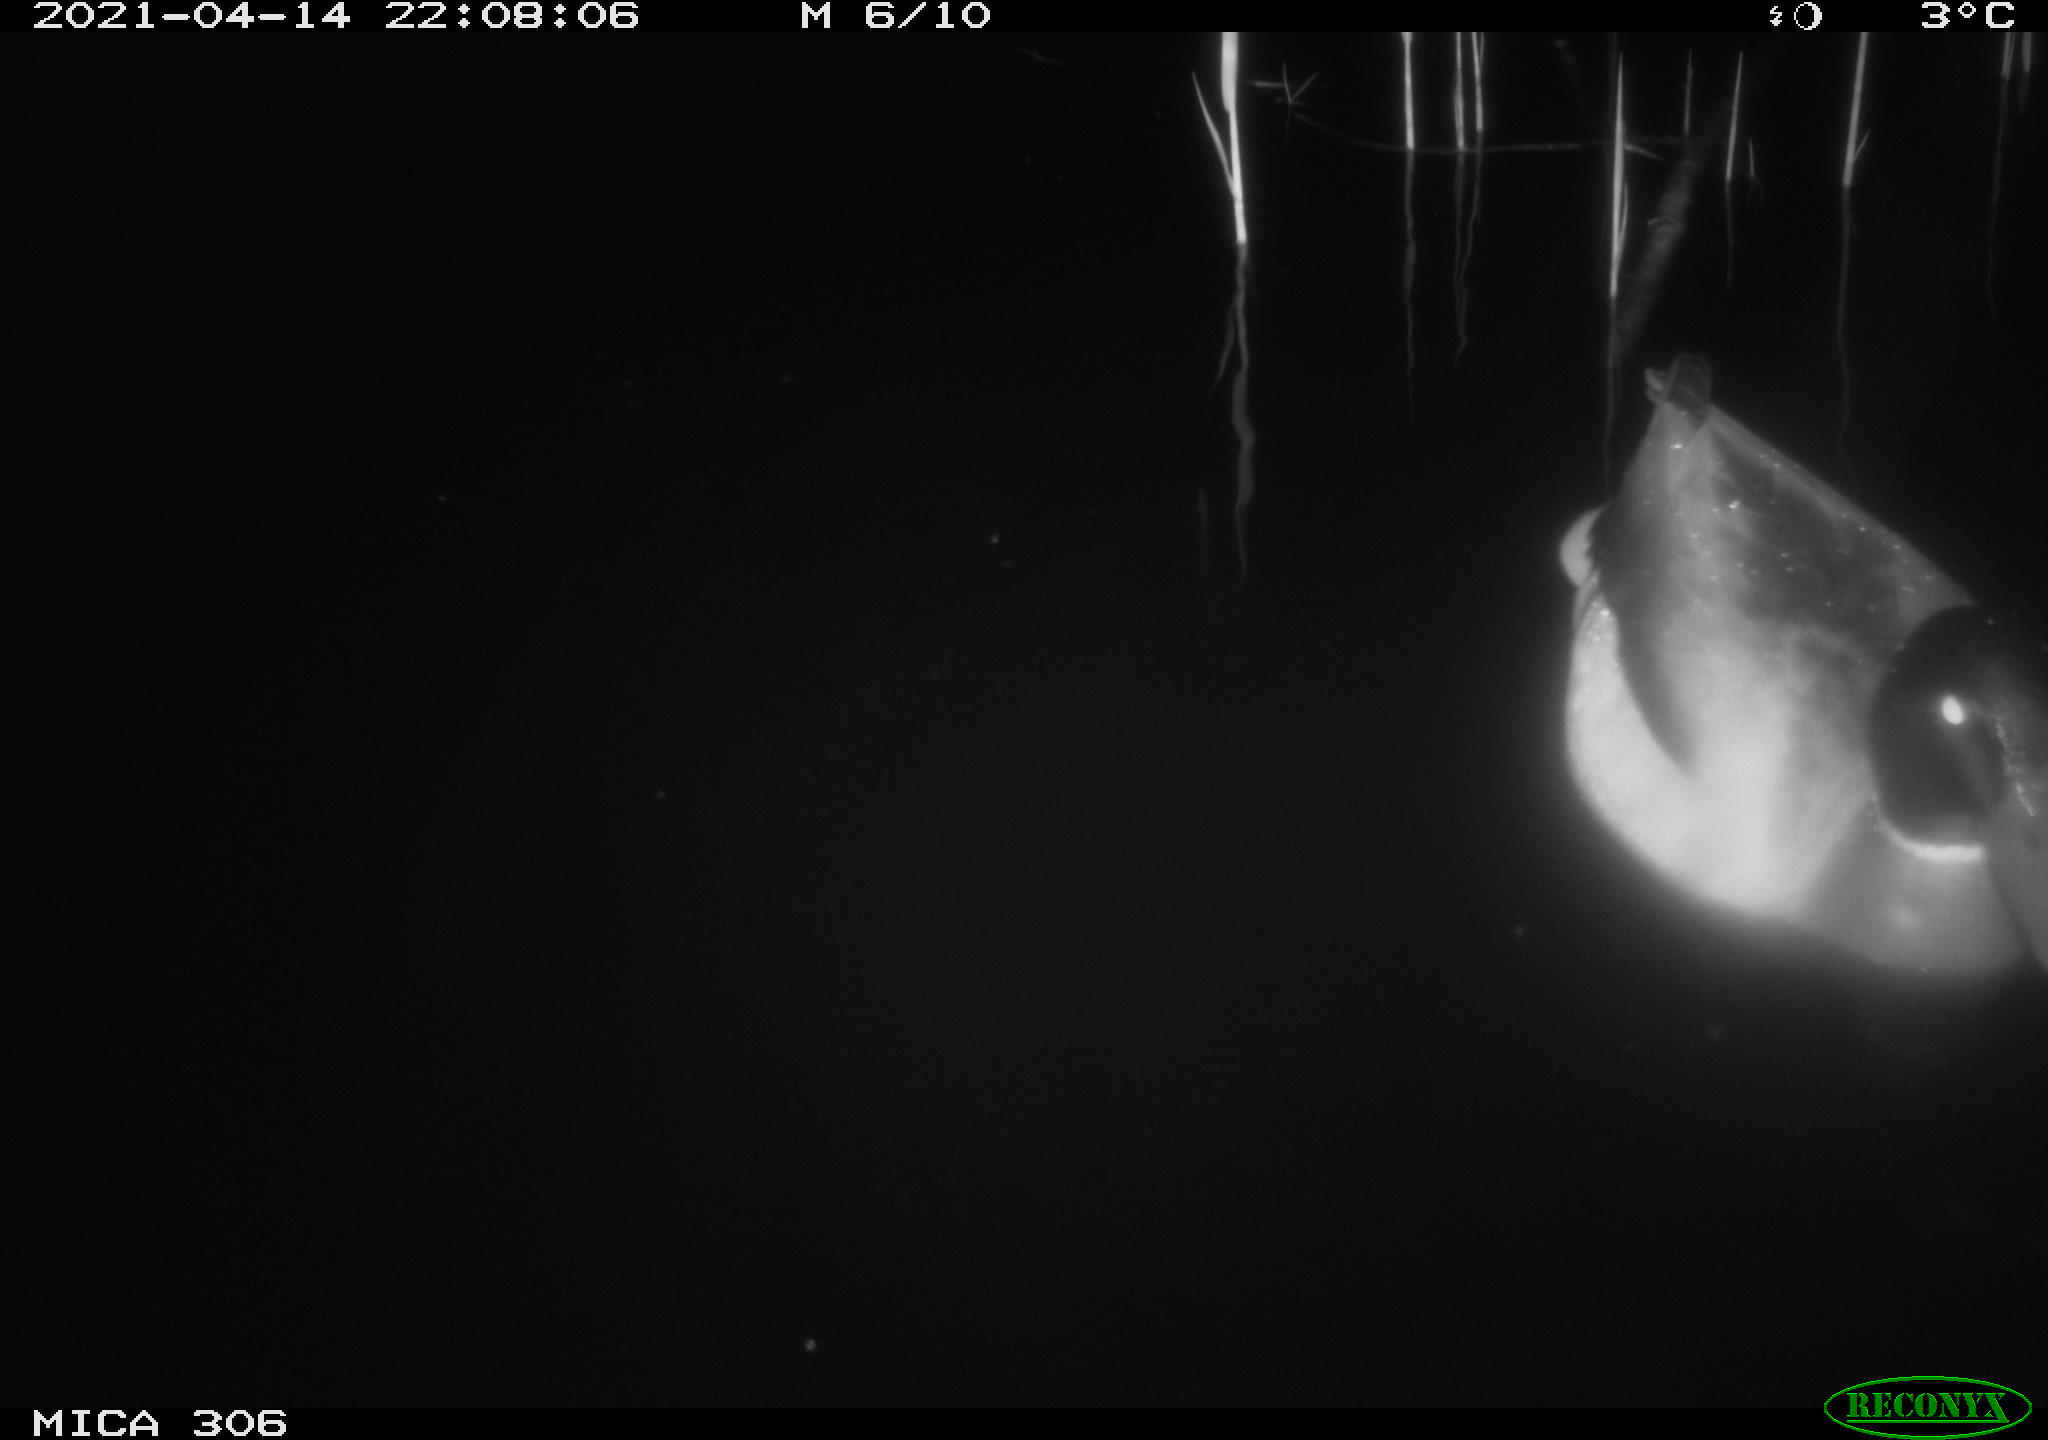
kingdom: Animalia
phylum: Chordata
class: Aves
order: Anseriformes
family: Anatidae
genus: Anas
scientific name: Anas
